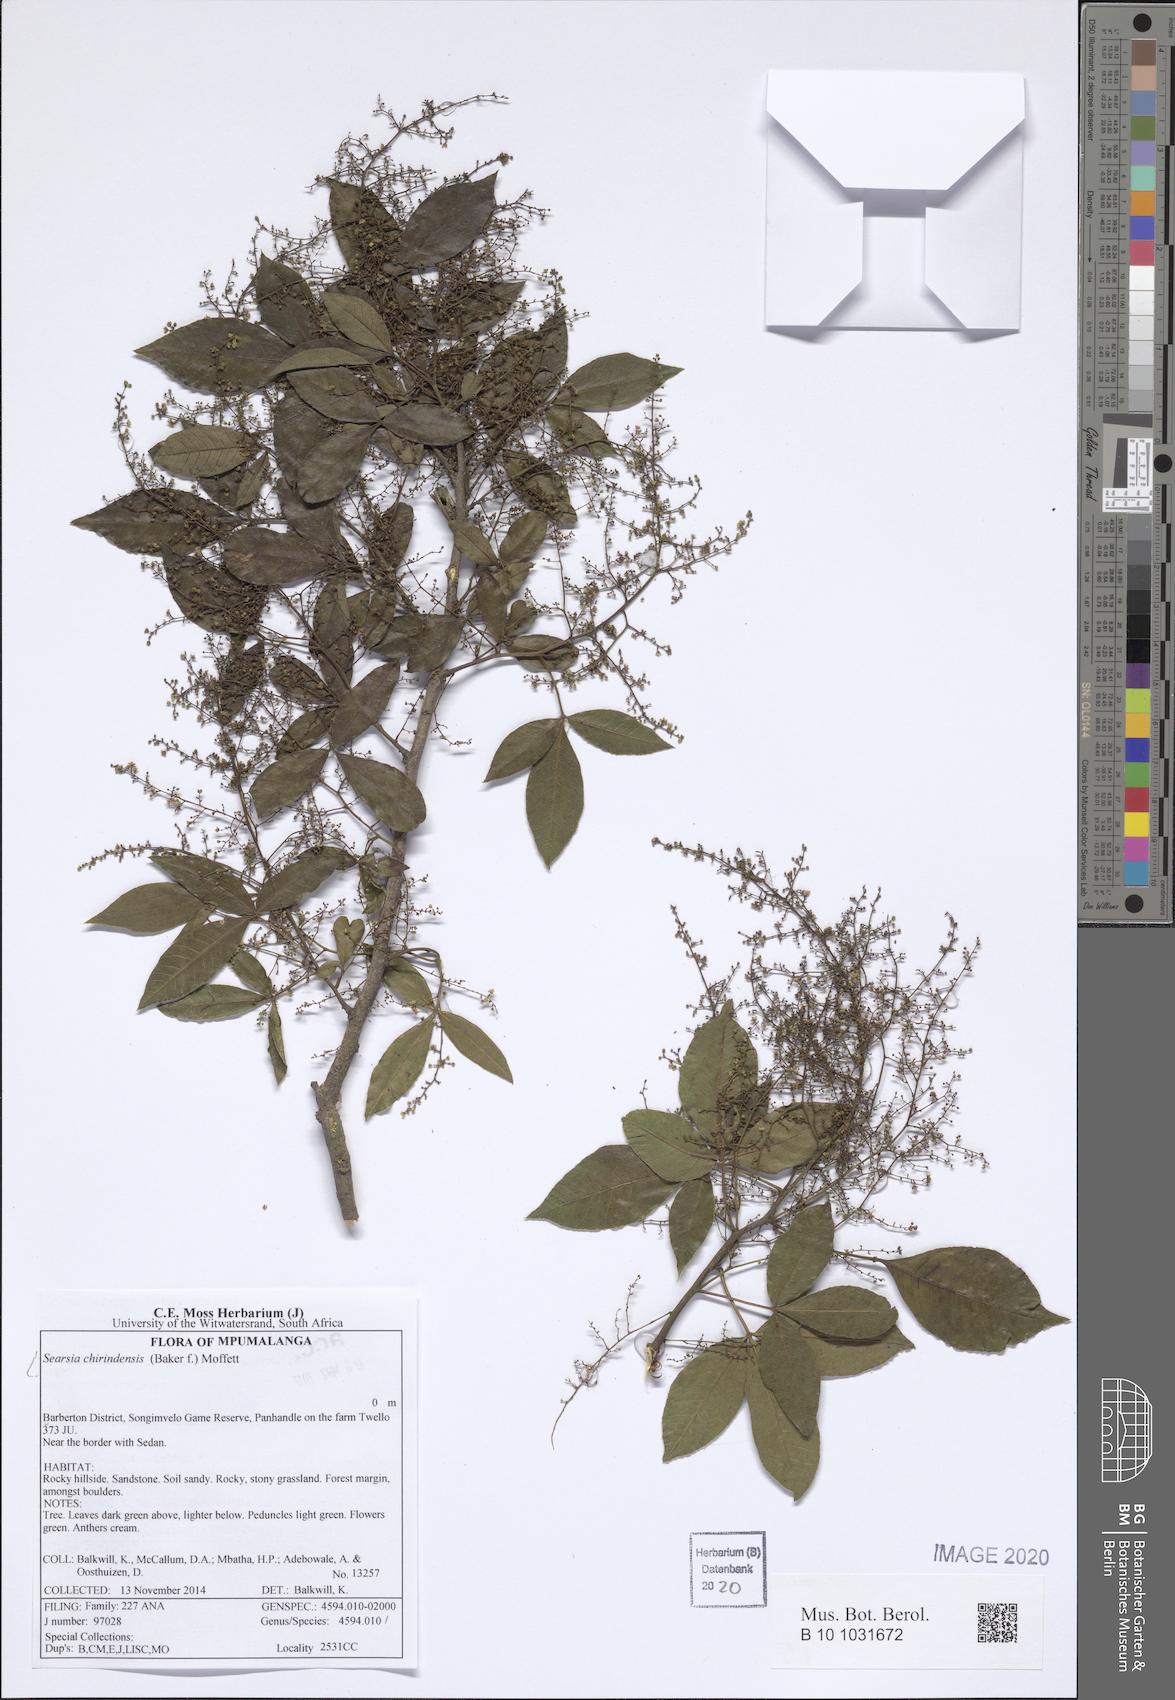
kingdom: Plantae
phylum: Tracheophyta
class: Magnoliopsida
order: Sapindales
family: Anacardiaceae
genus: Searsia
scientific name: Searsia chirindensis
